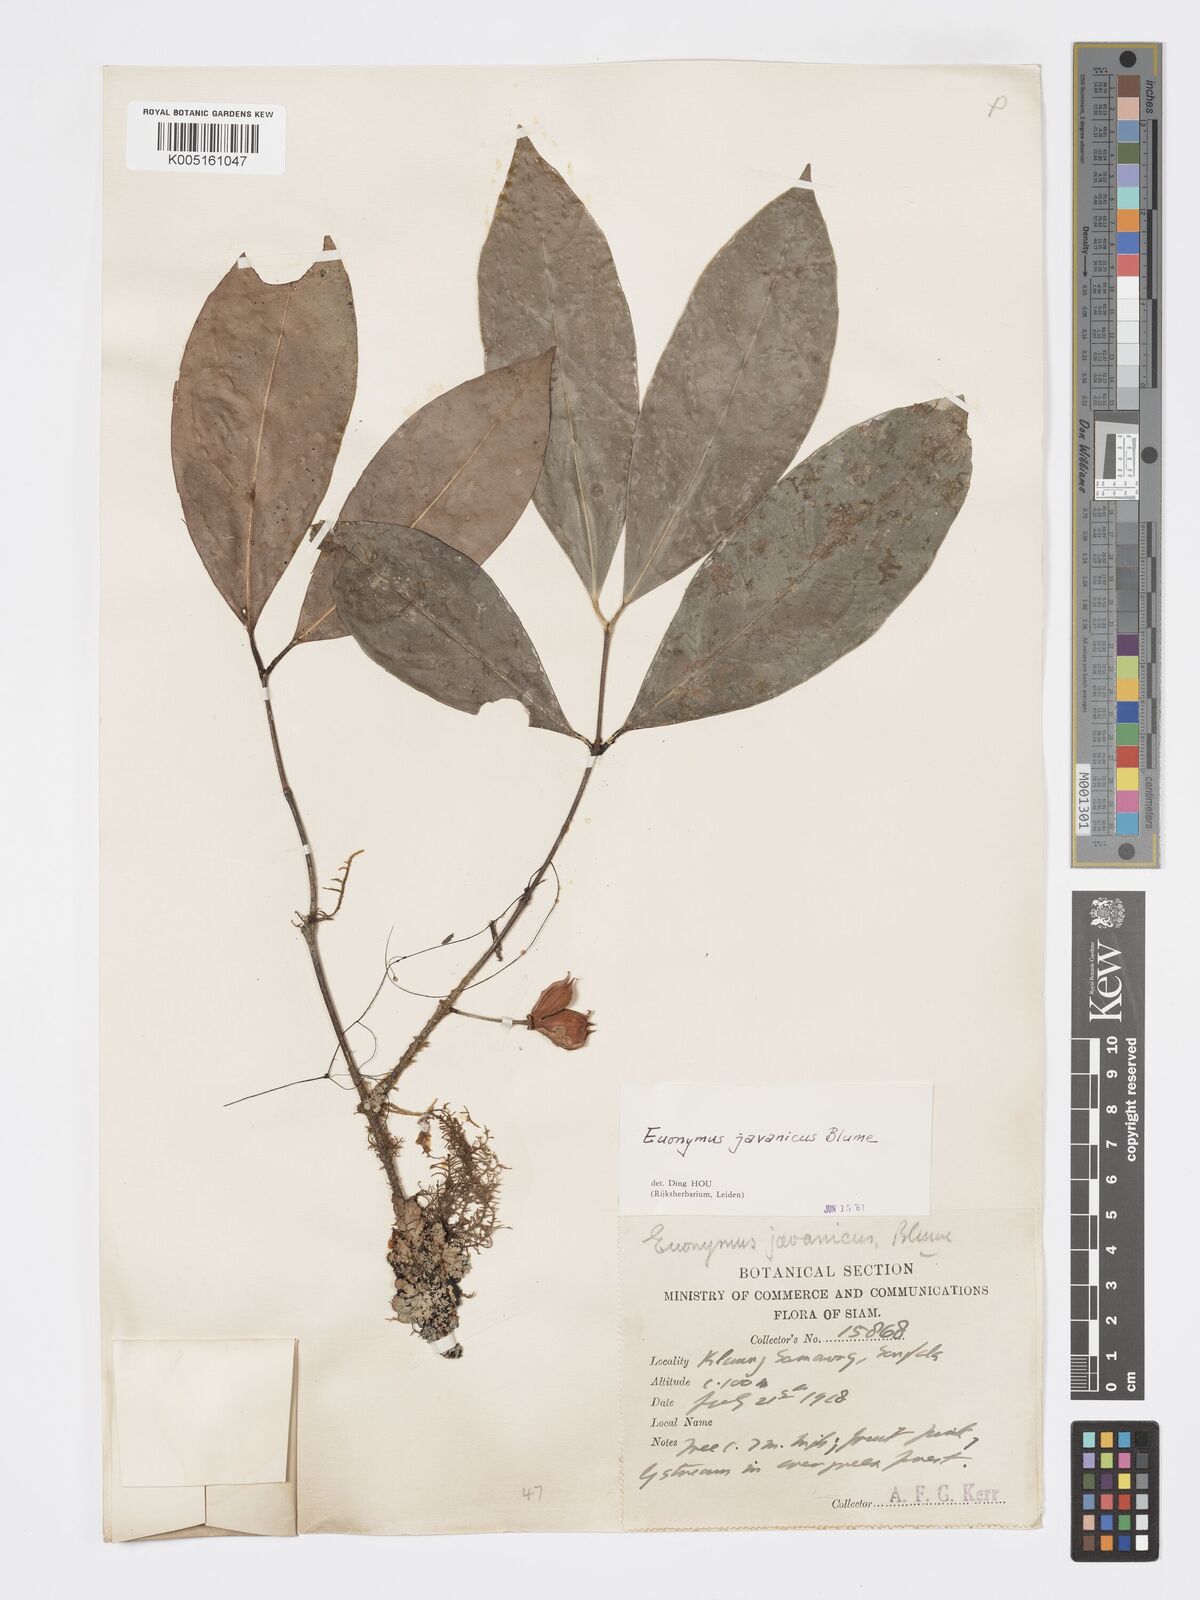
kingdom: Plantae
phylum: Tracheophyta
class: Magnoliopsida
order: Celastrales
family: Celastraceae
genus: Euonymus
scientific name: Euonymus indicus
